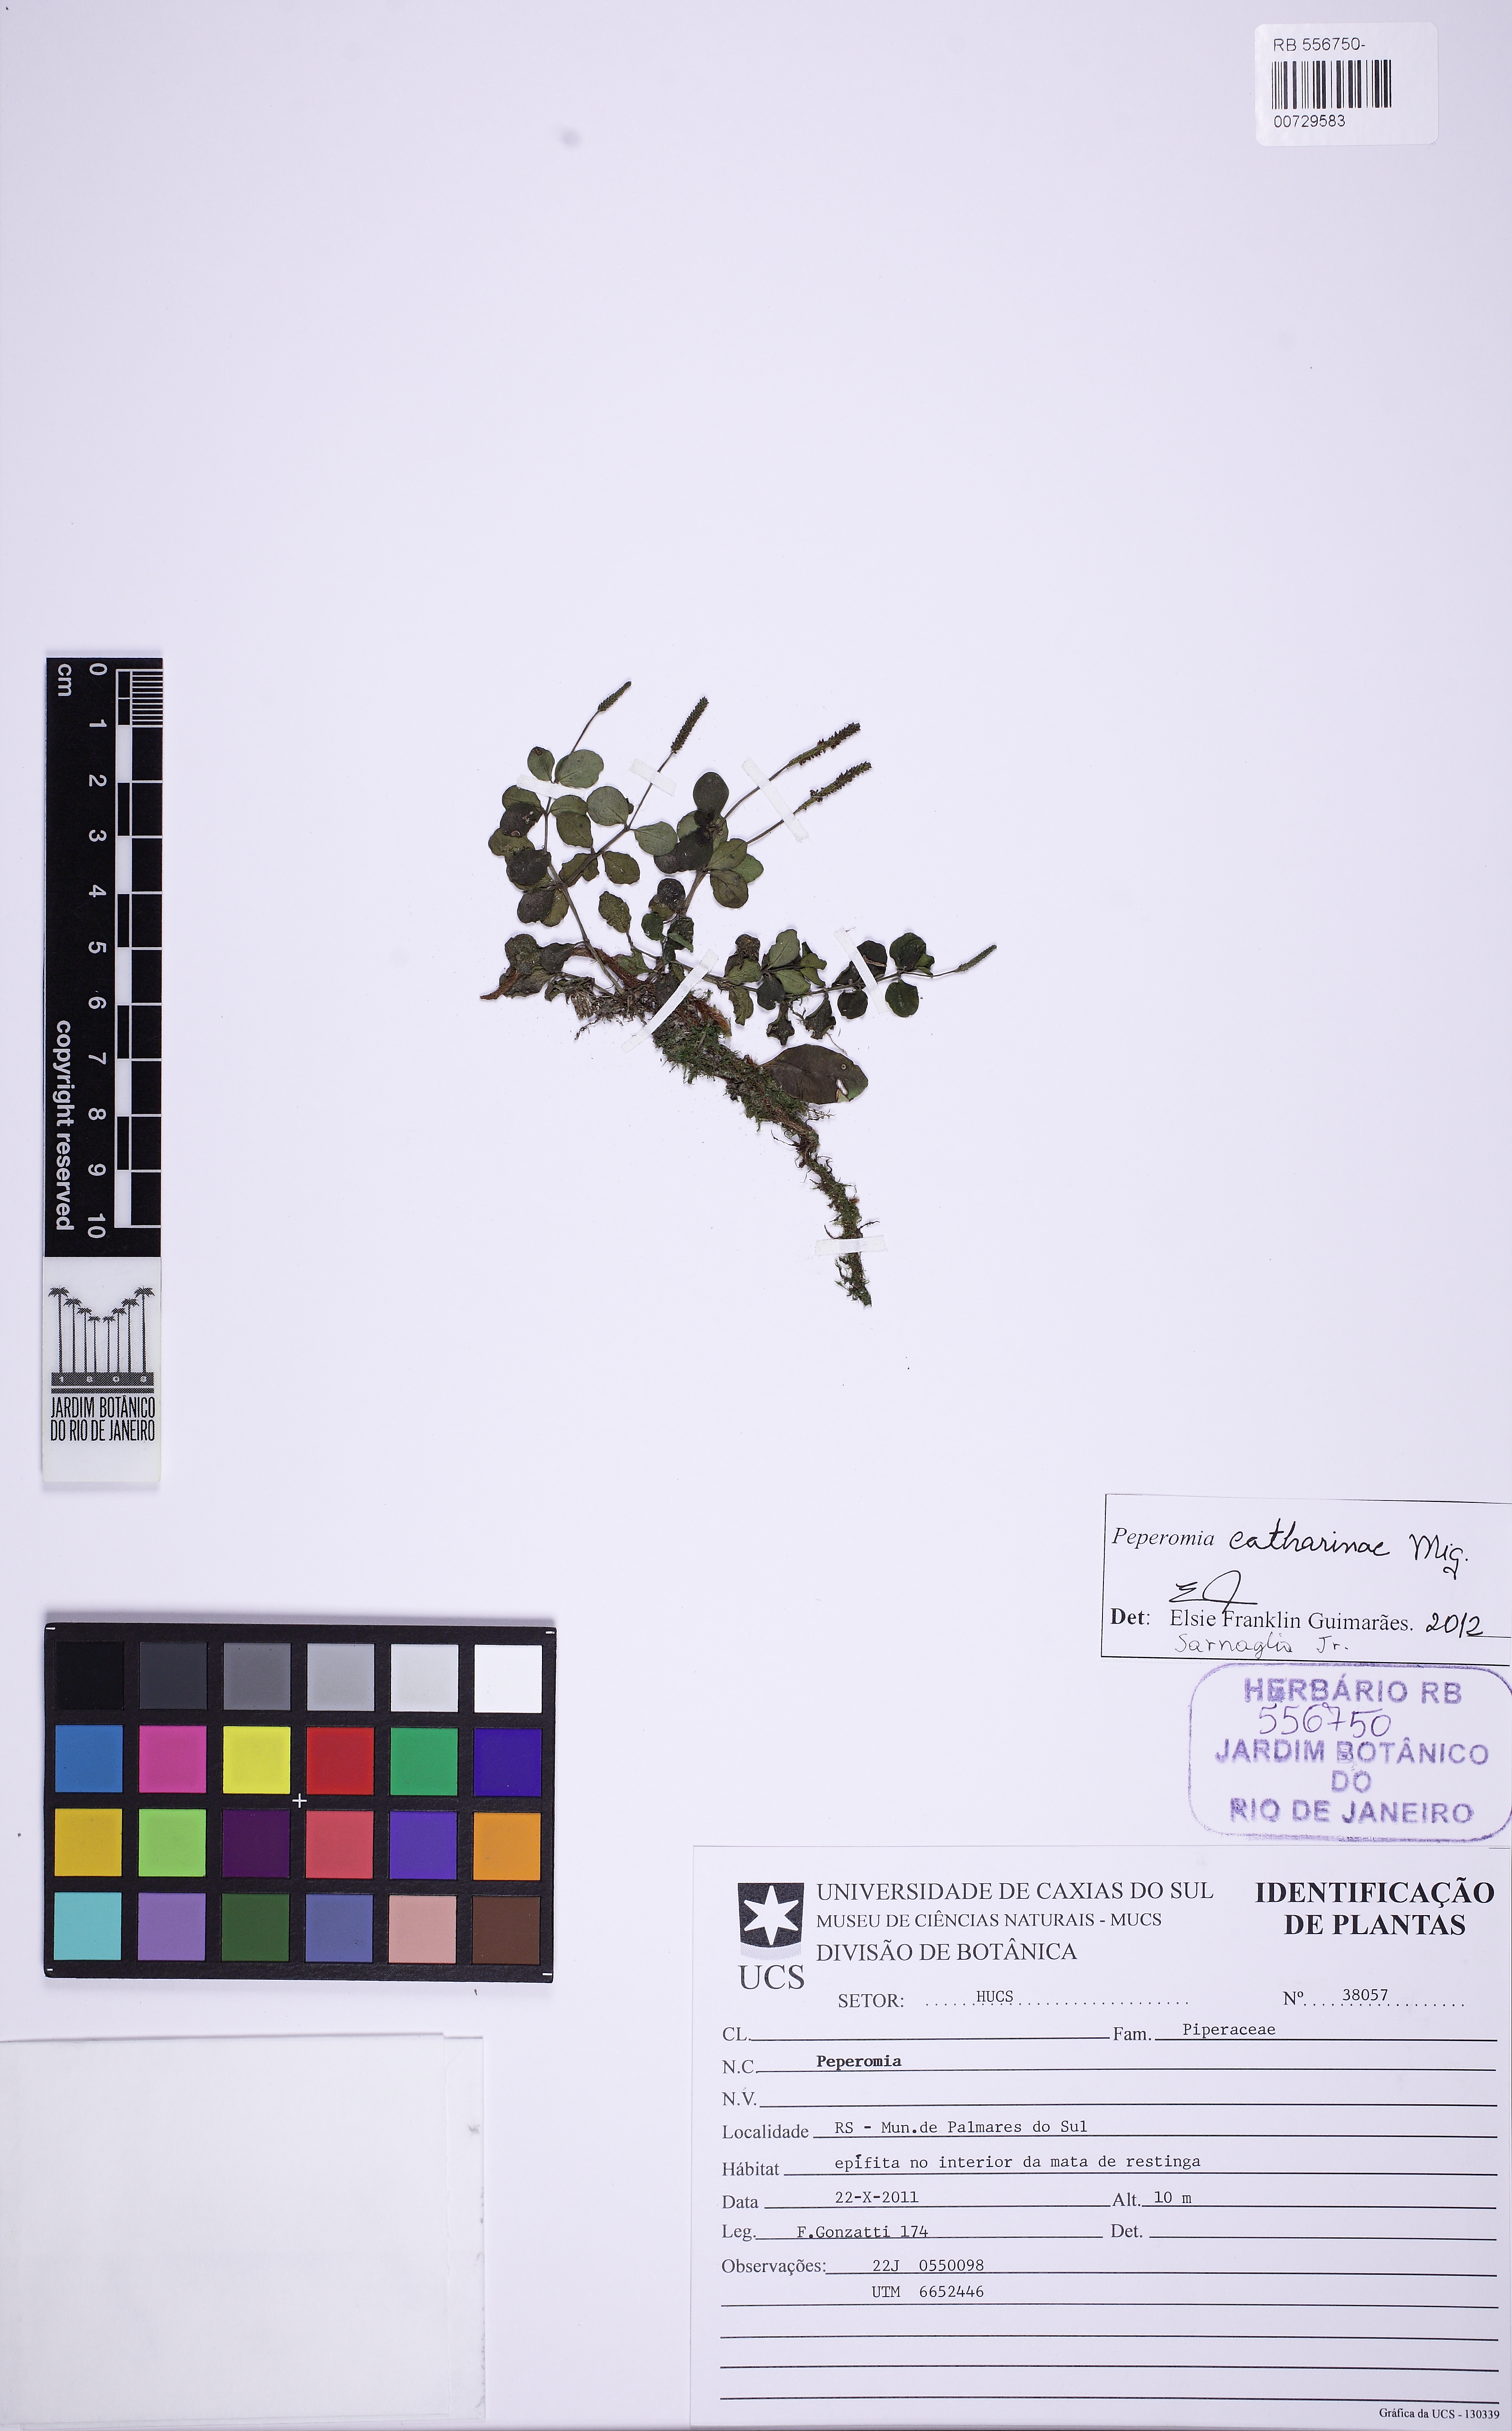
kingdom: Plantae
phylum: Tracheophyta
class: Magnoliopsida
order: Piperales
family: Piperaceae
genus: Peperomia
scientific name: Peperomia catharinae
